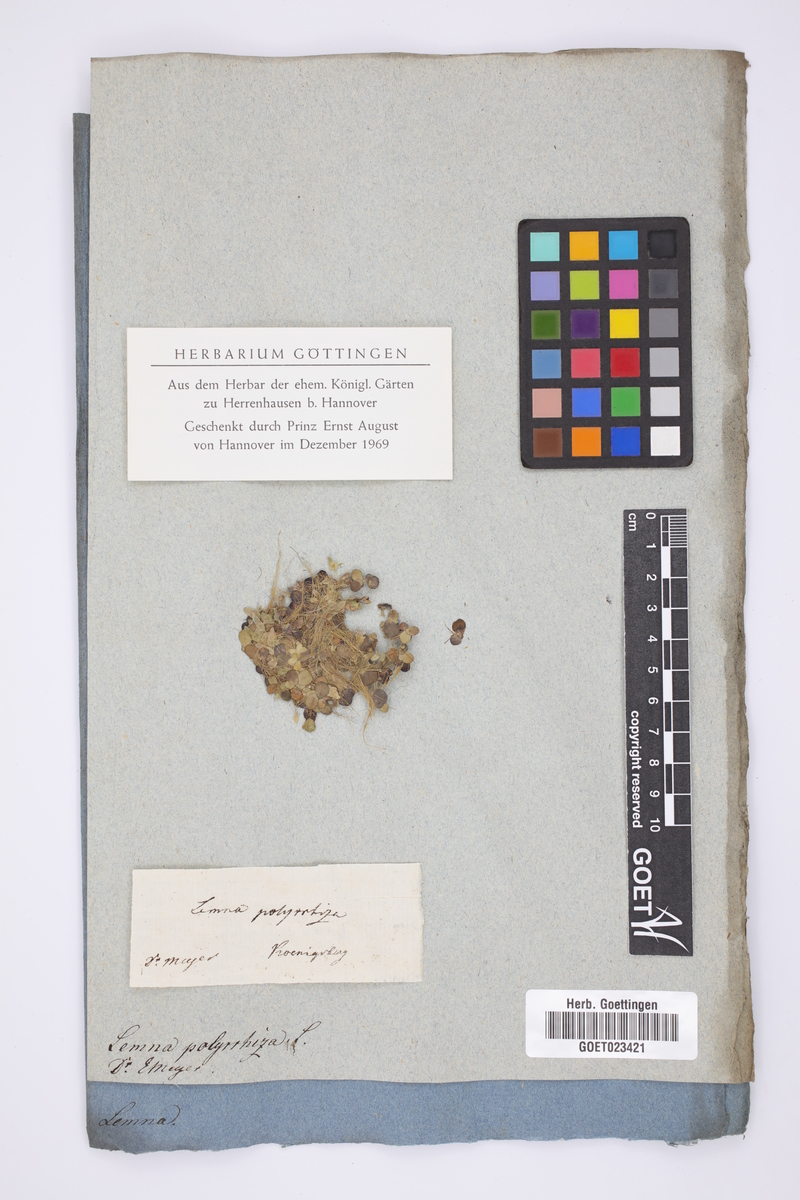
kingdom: Plantae
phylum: Tracheophyta
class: Liliopsida
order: Alismatales
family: Araceae
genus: Spirodela
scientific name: Spirodela polyrhiza
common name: Great duckweed
